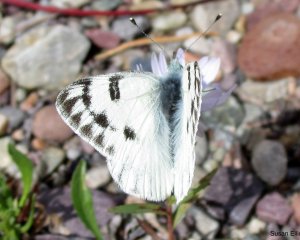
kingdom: Animalia
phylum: Arthropoda
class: Insecta
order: Lepidoptera
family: Pieridae
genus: Pontia
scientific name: Pontia protodice
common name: Checkered White
